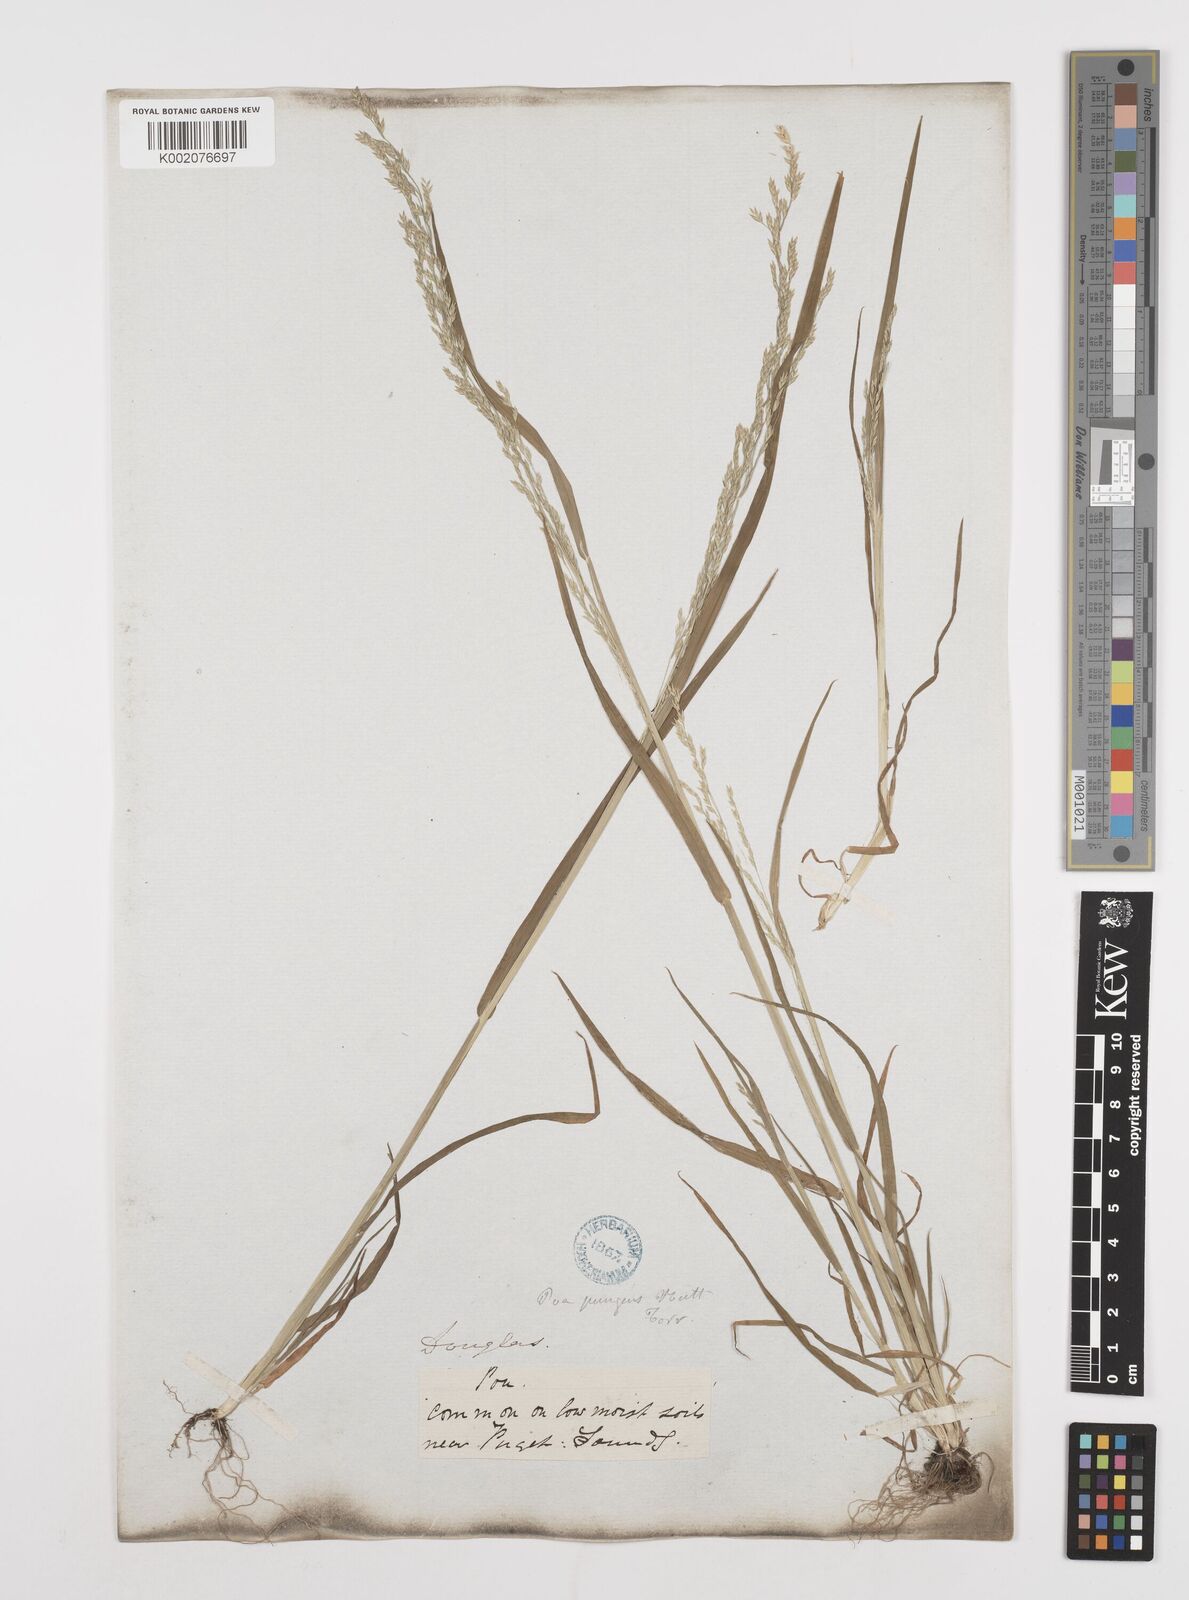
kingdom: Plantae
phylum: Tracheophyta
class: Liliopsida
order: Poales
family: Poaceae
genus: Poa
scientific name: Poa
